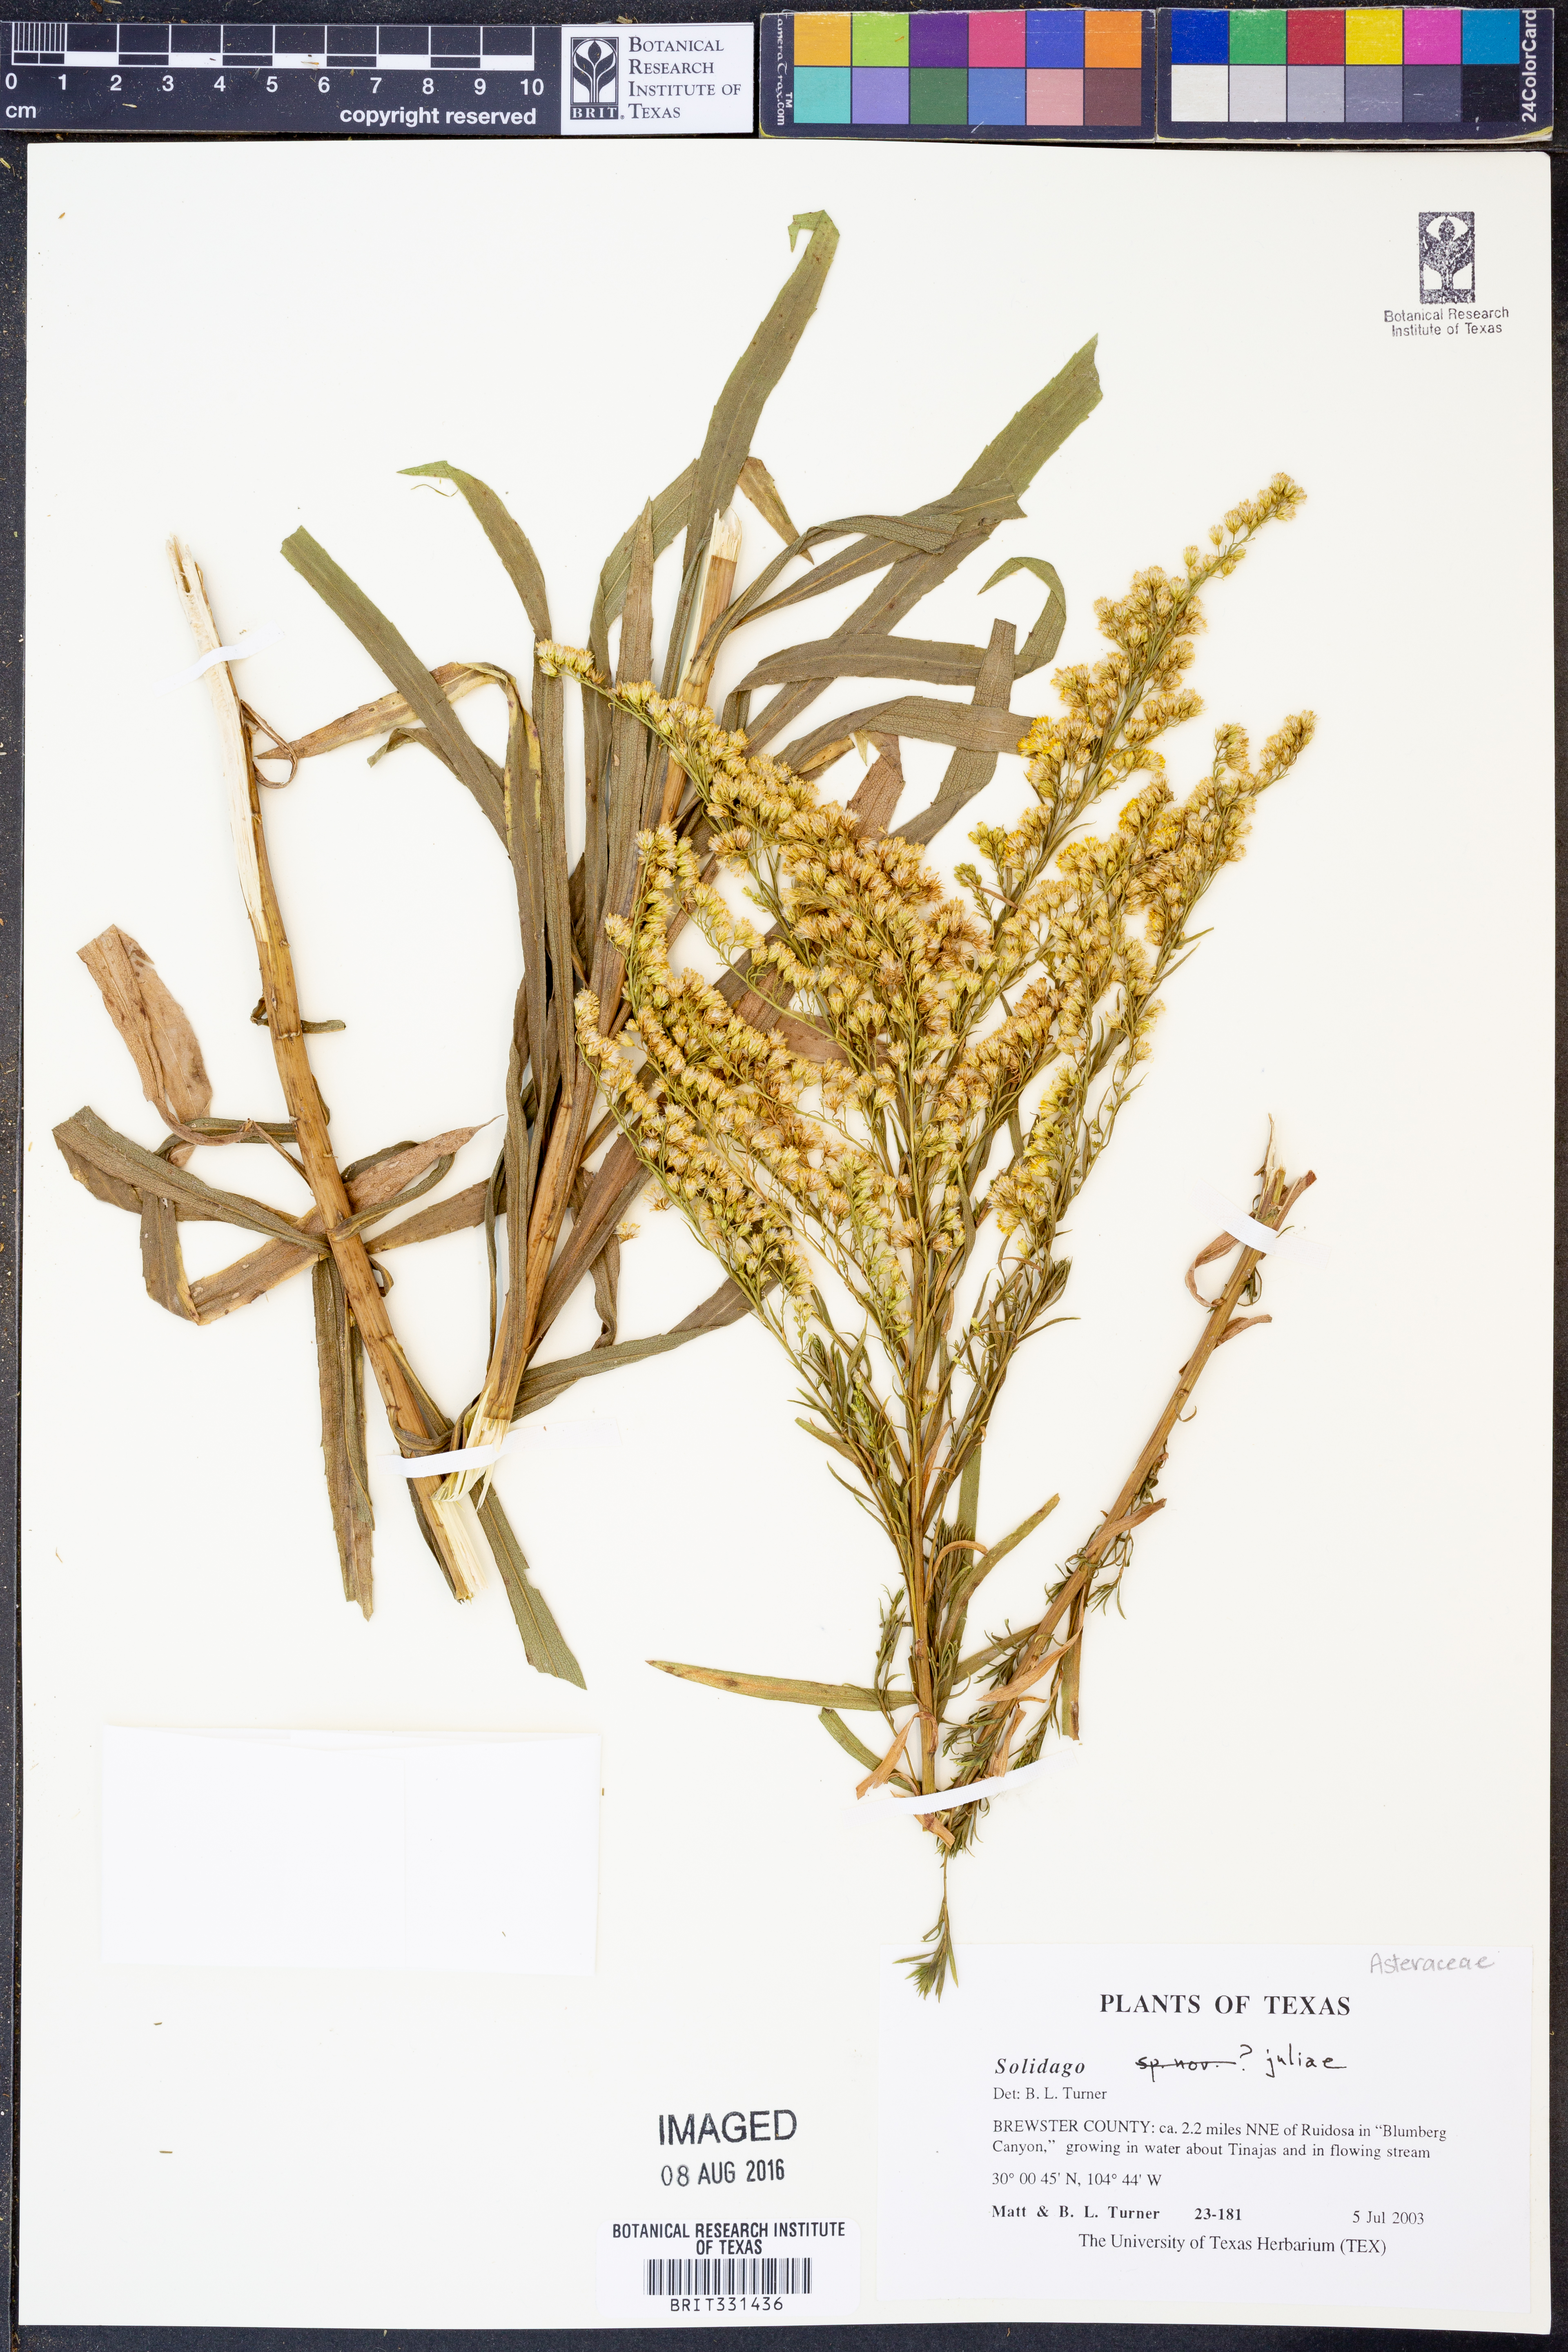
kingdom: Plantae
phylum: Tracheophyta
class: Magnoliopsida
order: Asterales
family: Asteraceae
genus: Solidago
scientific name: Solidago juliae
